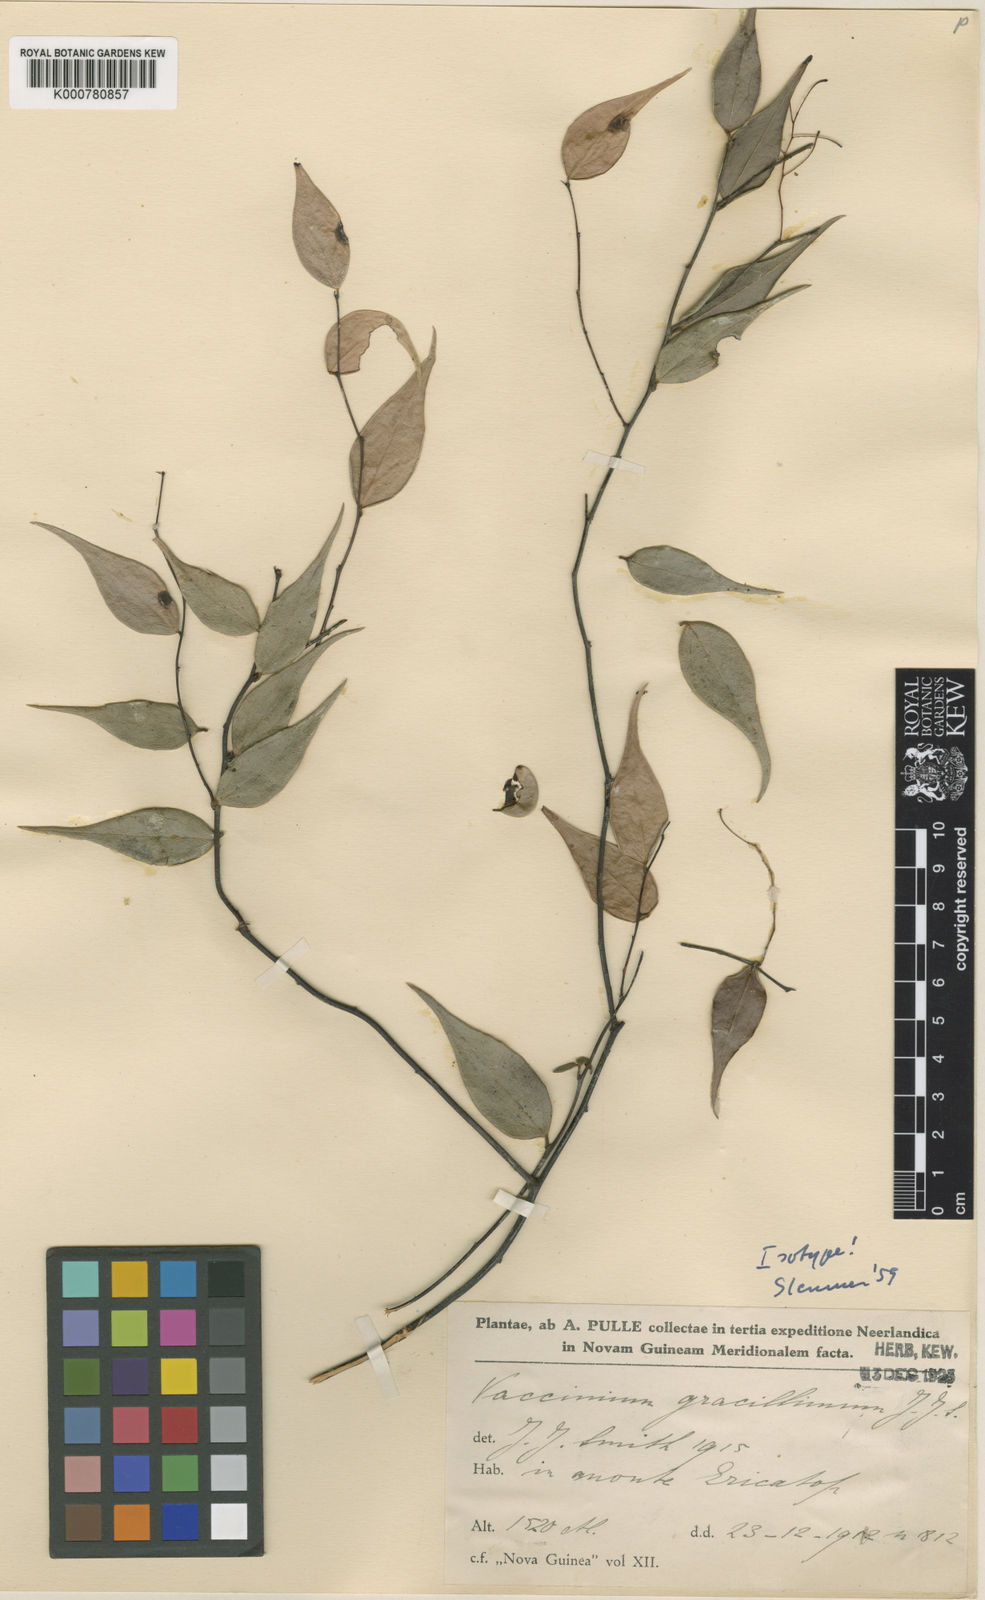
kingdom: Plantae
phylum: Tracheophyta
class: Magnoliopsida
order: Ericales
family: Ericaceae
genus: Vaccinium
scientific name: Vaccinium gracillimum
